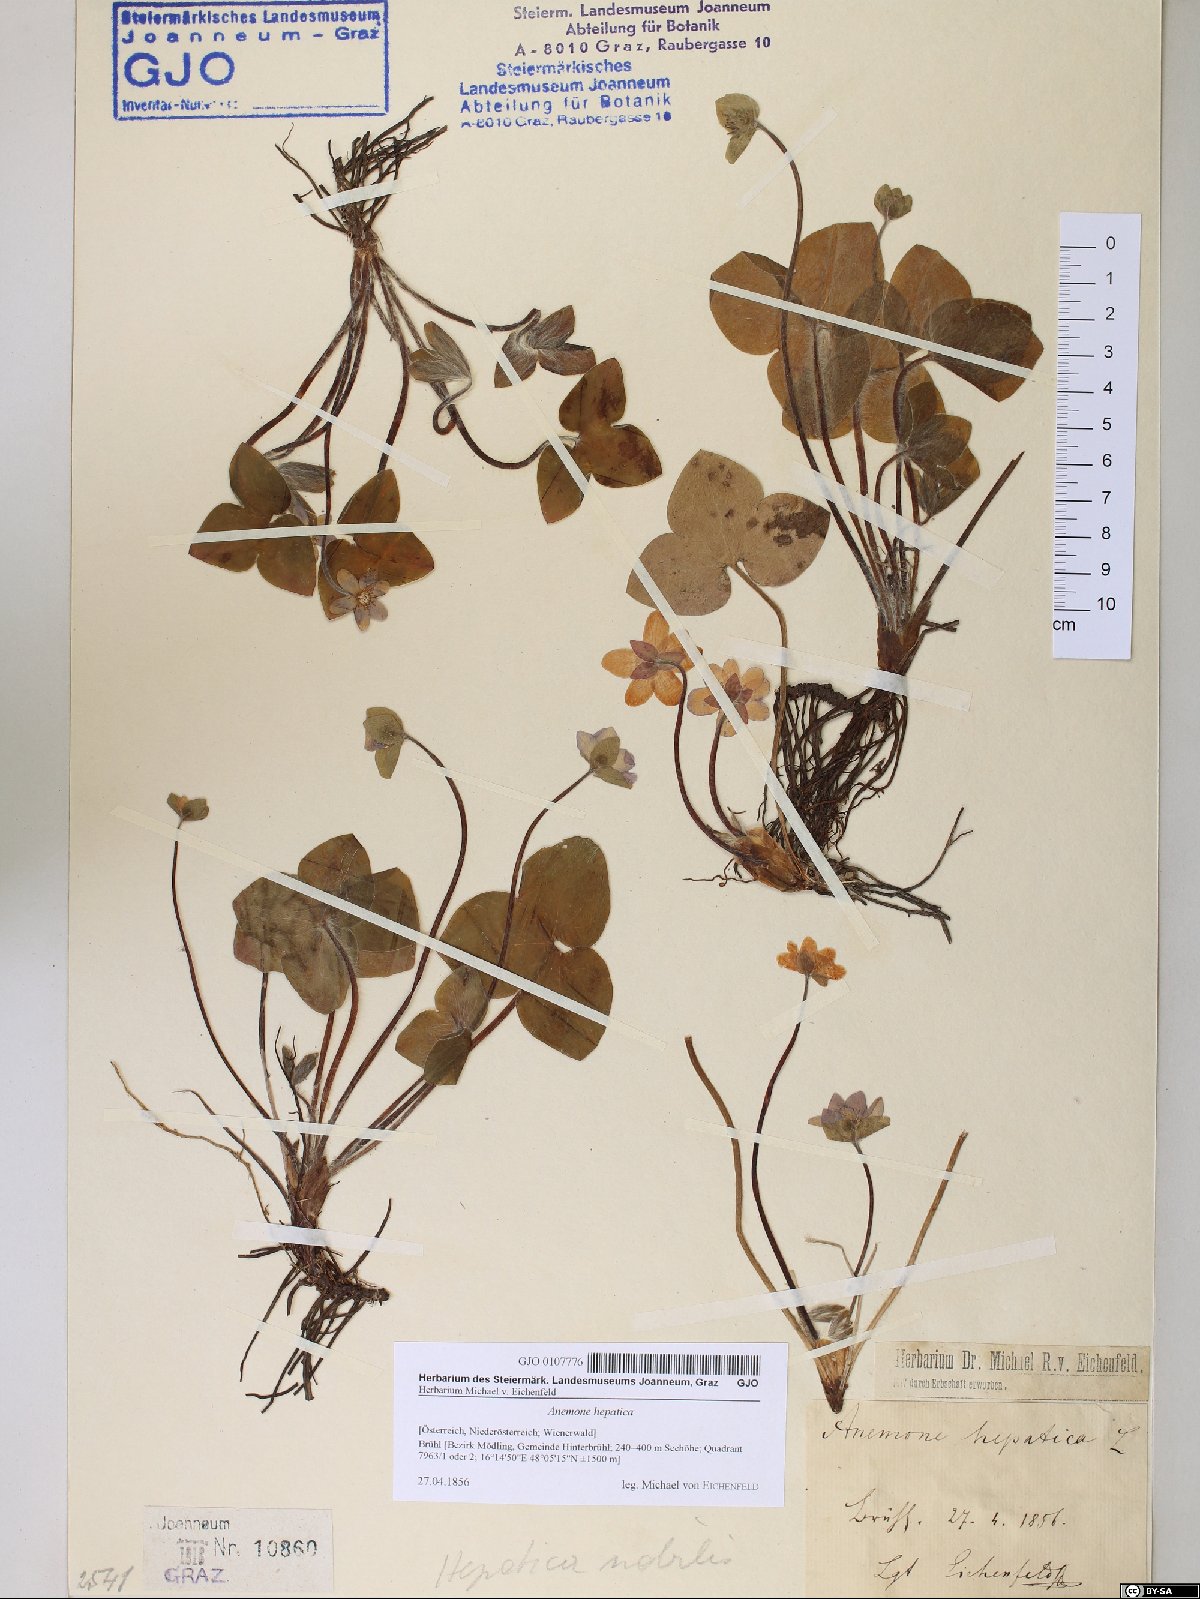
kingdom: Plantae
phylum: Tracheophyta
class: Magnoliopsida
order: Ranunculales
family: Ranunculaceae
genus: Hepatica
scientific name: Hepatica nobilis
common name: Liverleaf
